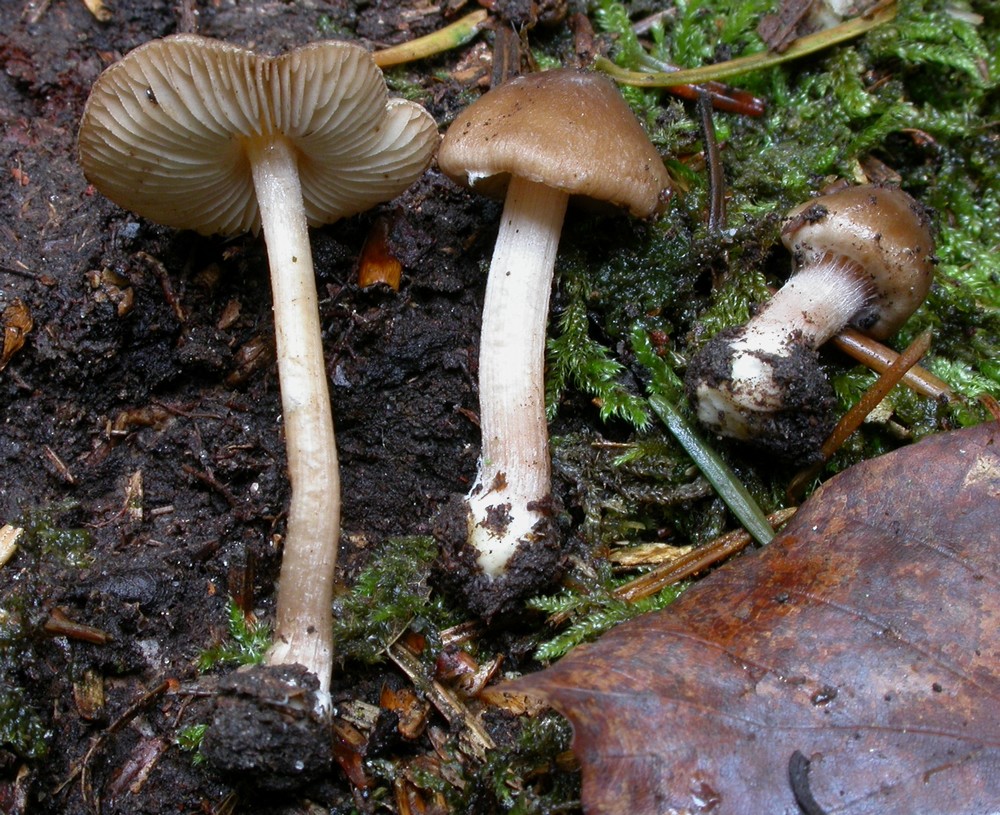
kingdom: Fungi
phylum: Basidiomycota
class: Agaricomycetes
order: Agaricales
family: Inocybaceae
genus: Inocybe
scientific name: Inocybe transitoria
